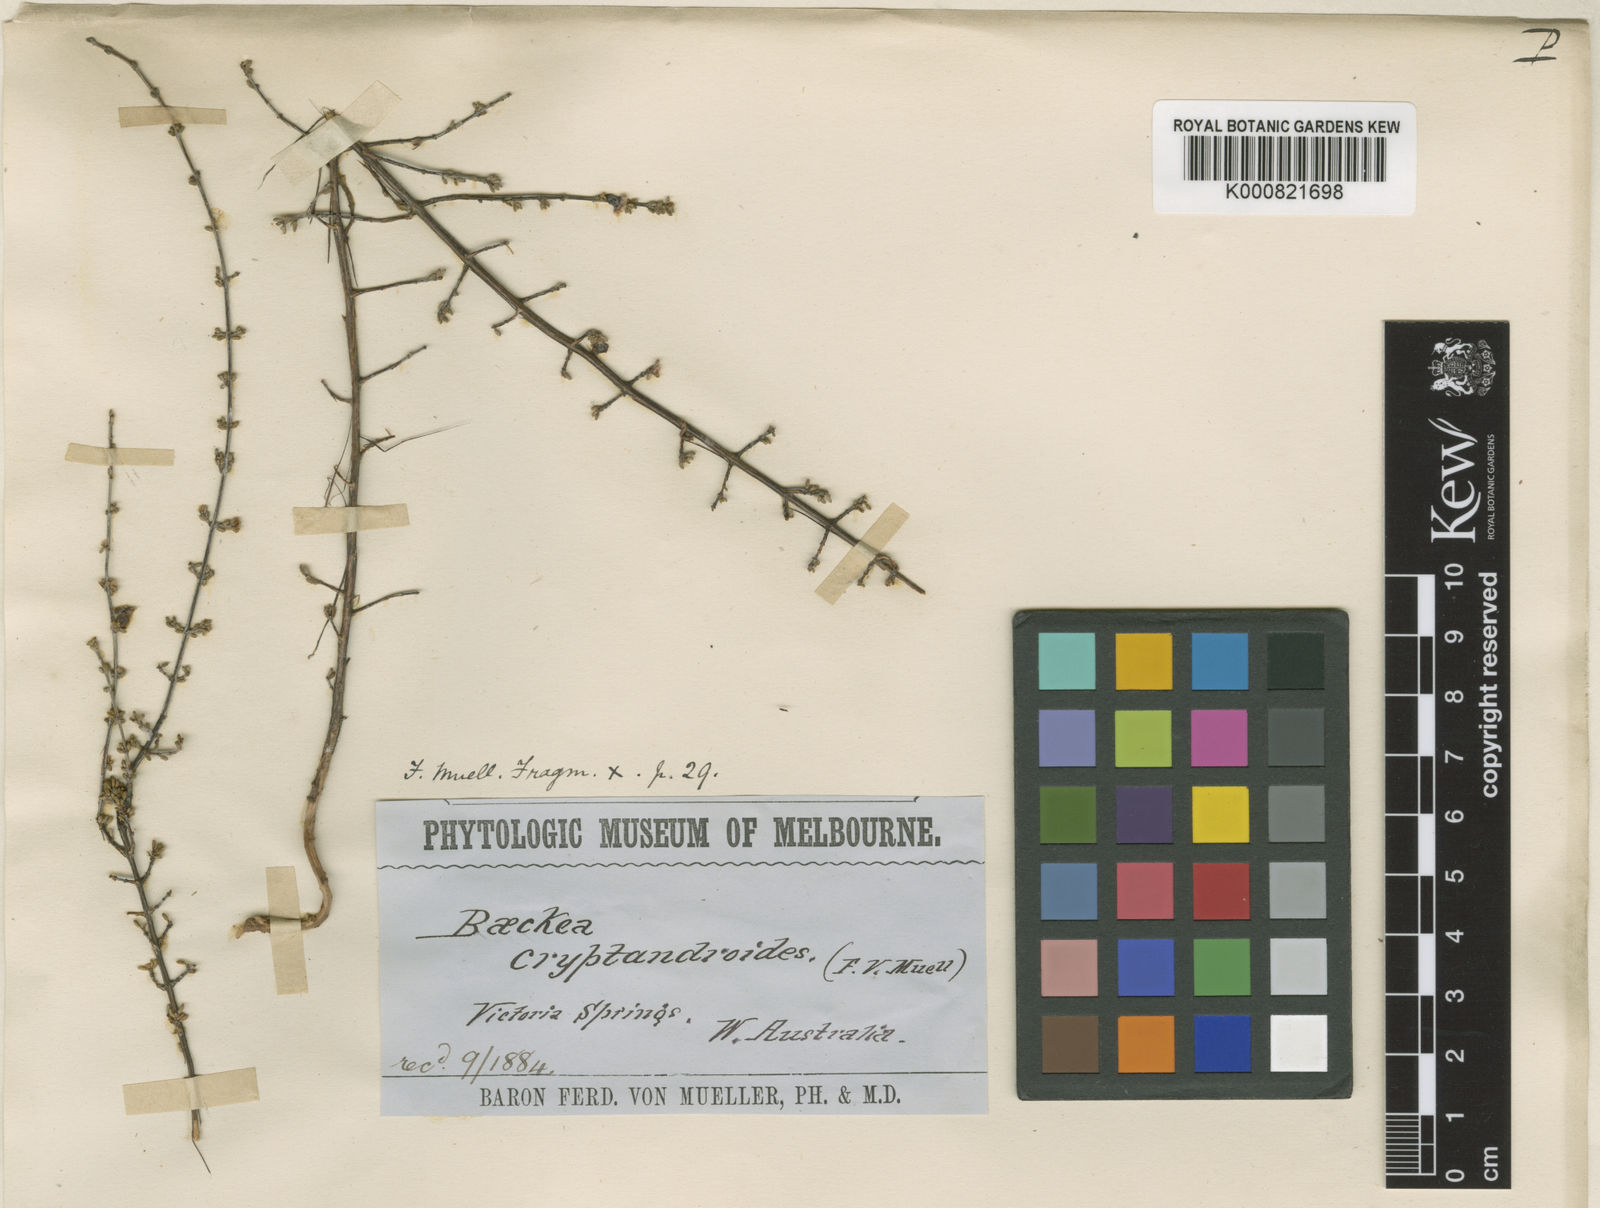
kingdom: Plantae
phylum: Tracheophyta
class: Magnoliopsida
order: Myrtales
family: Myrtaceae
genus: Enekbatus
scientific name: Enekbatus cryptandroides
